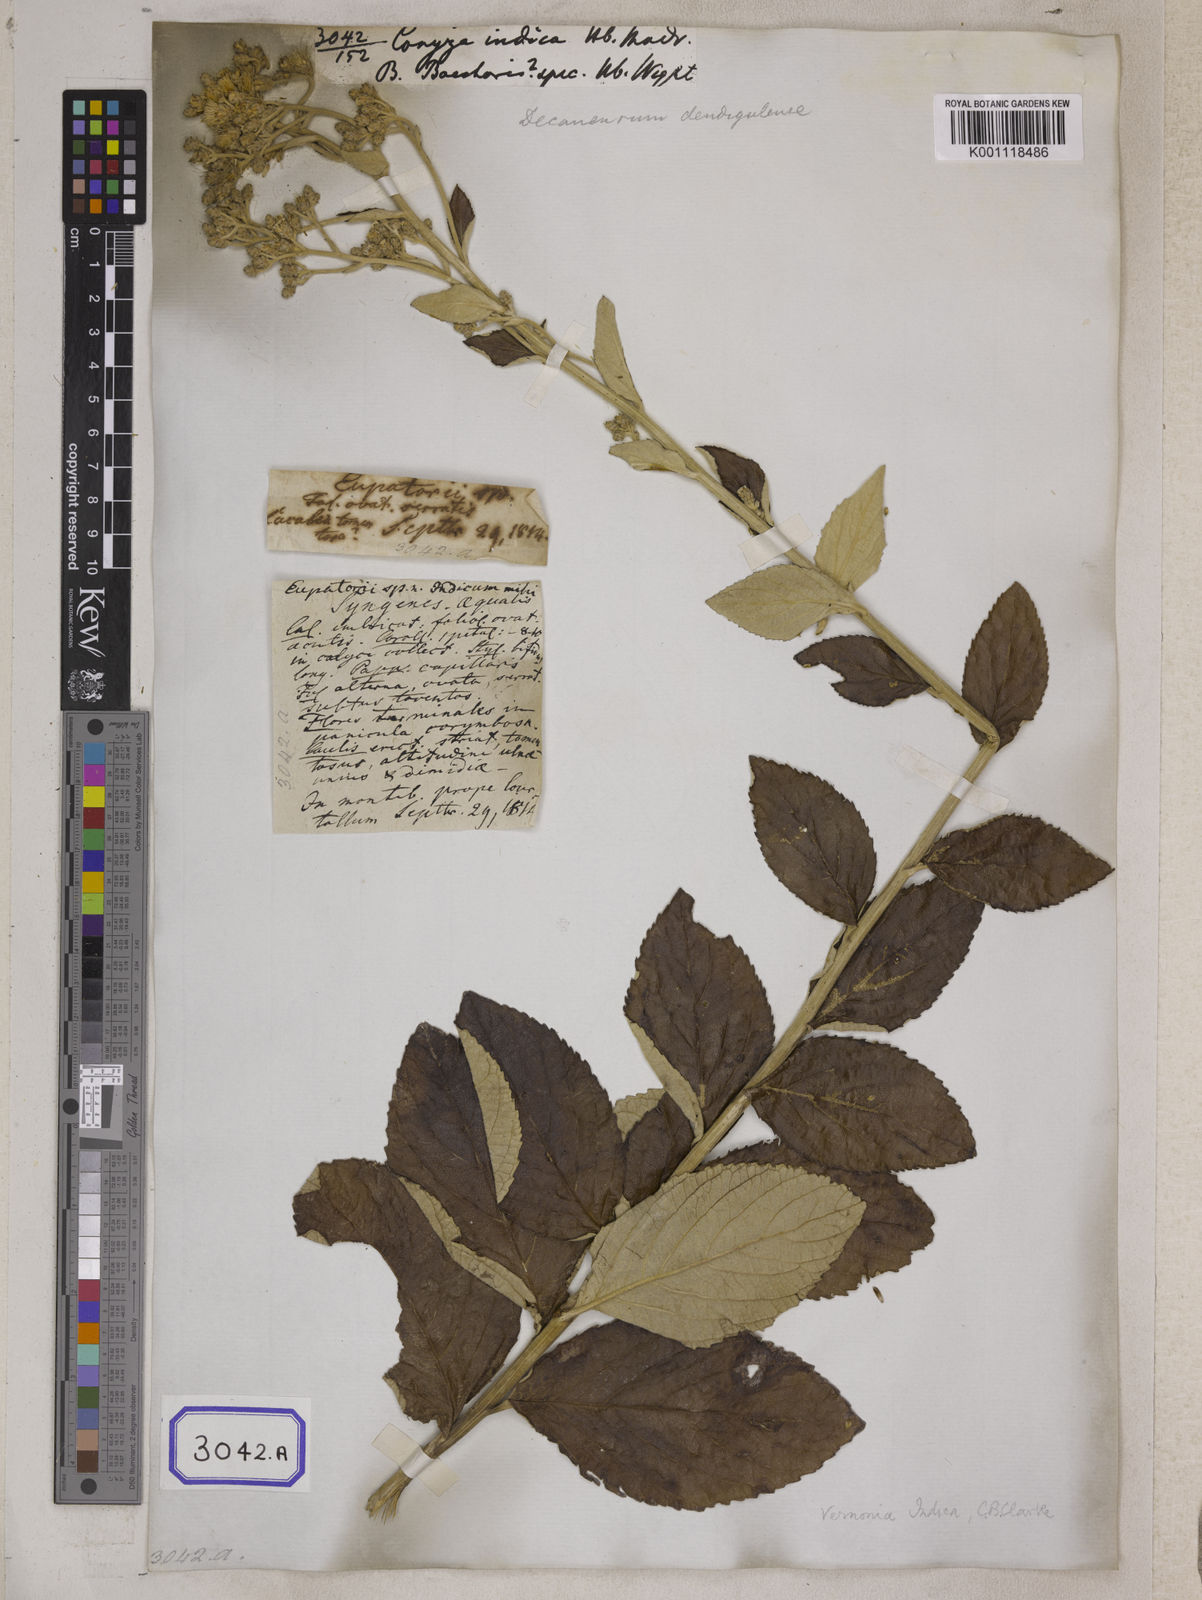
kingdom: Plantae
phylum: Tracheophyta
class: Magnoliopsida
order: Asterales
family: Asteraceae
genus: Acilepis
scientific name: Acilepis dendigulensis
